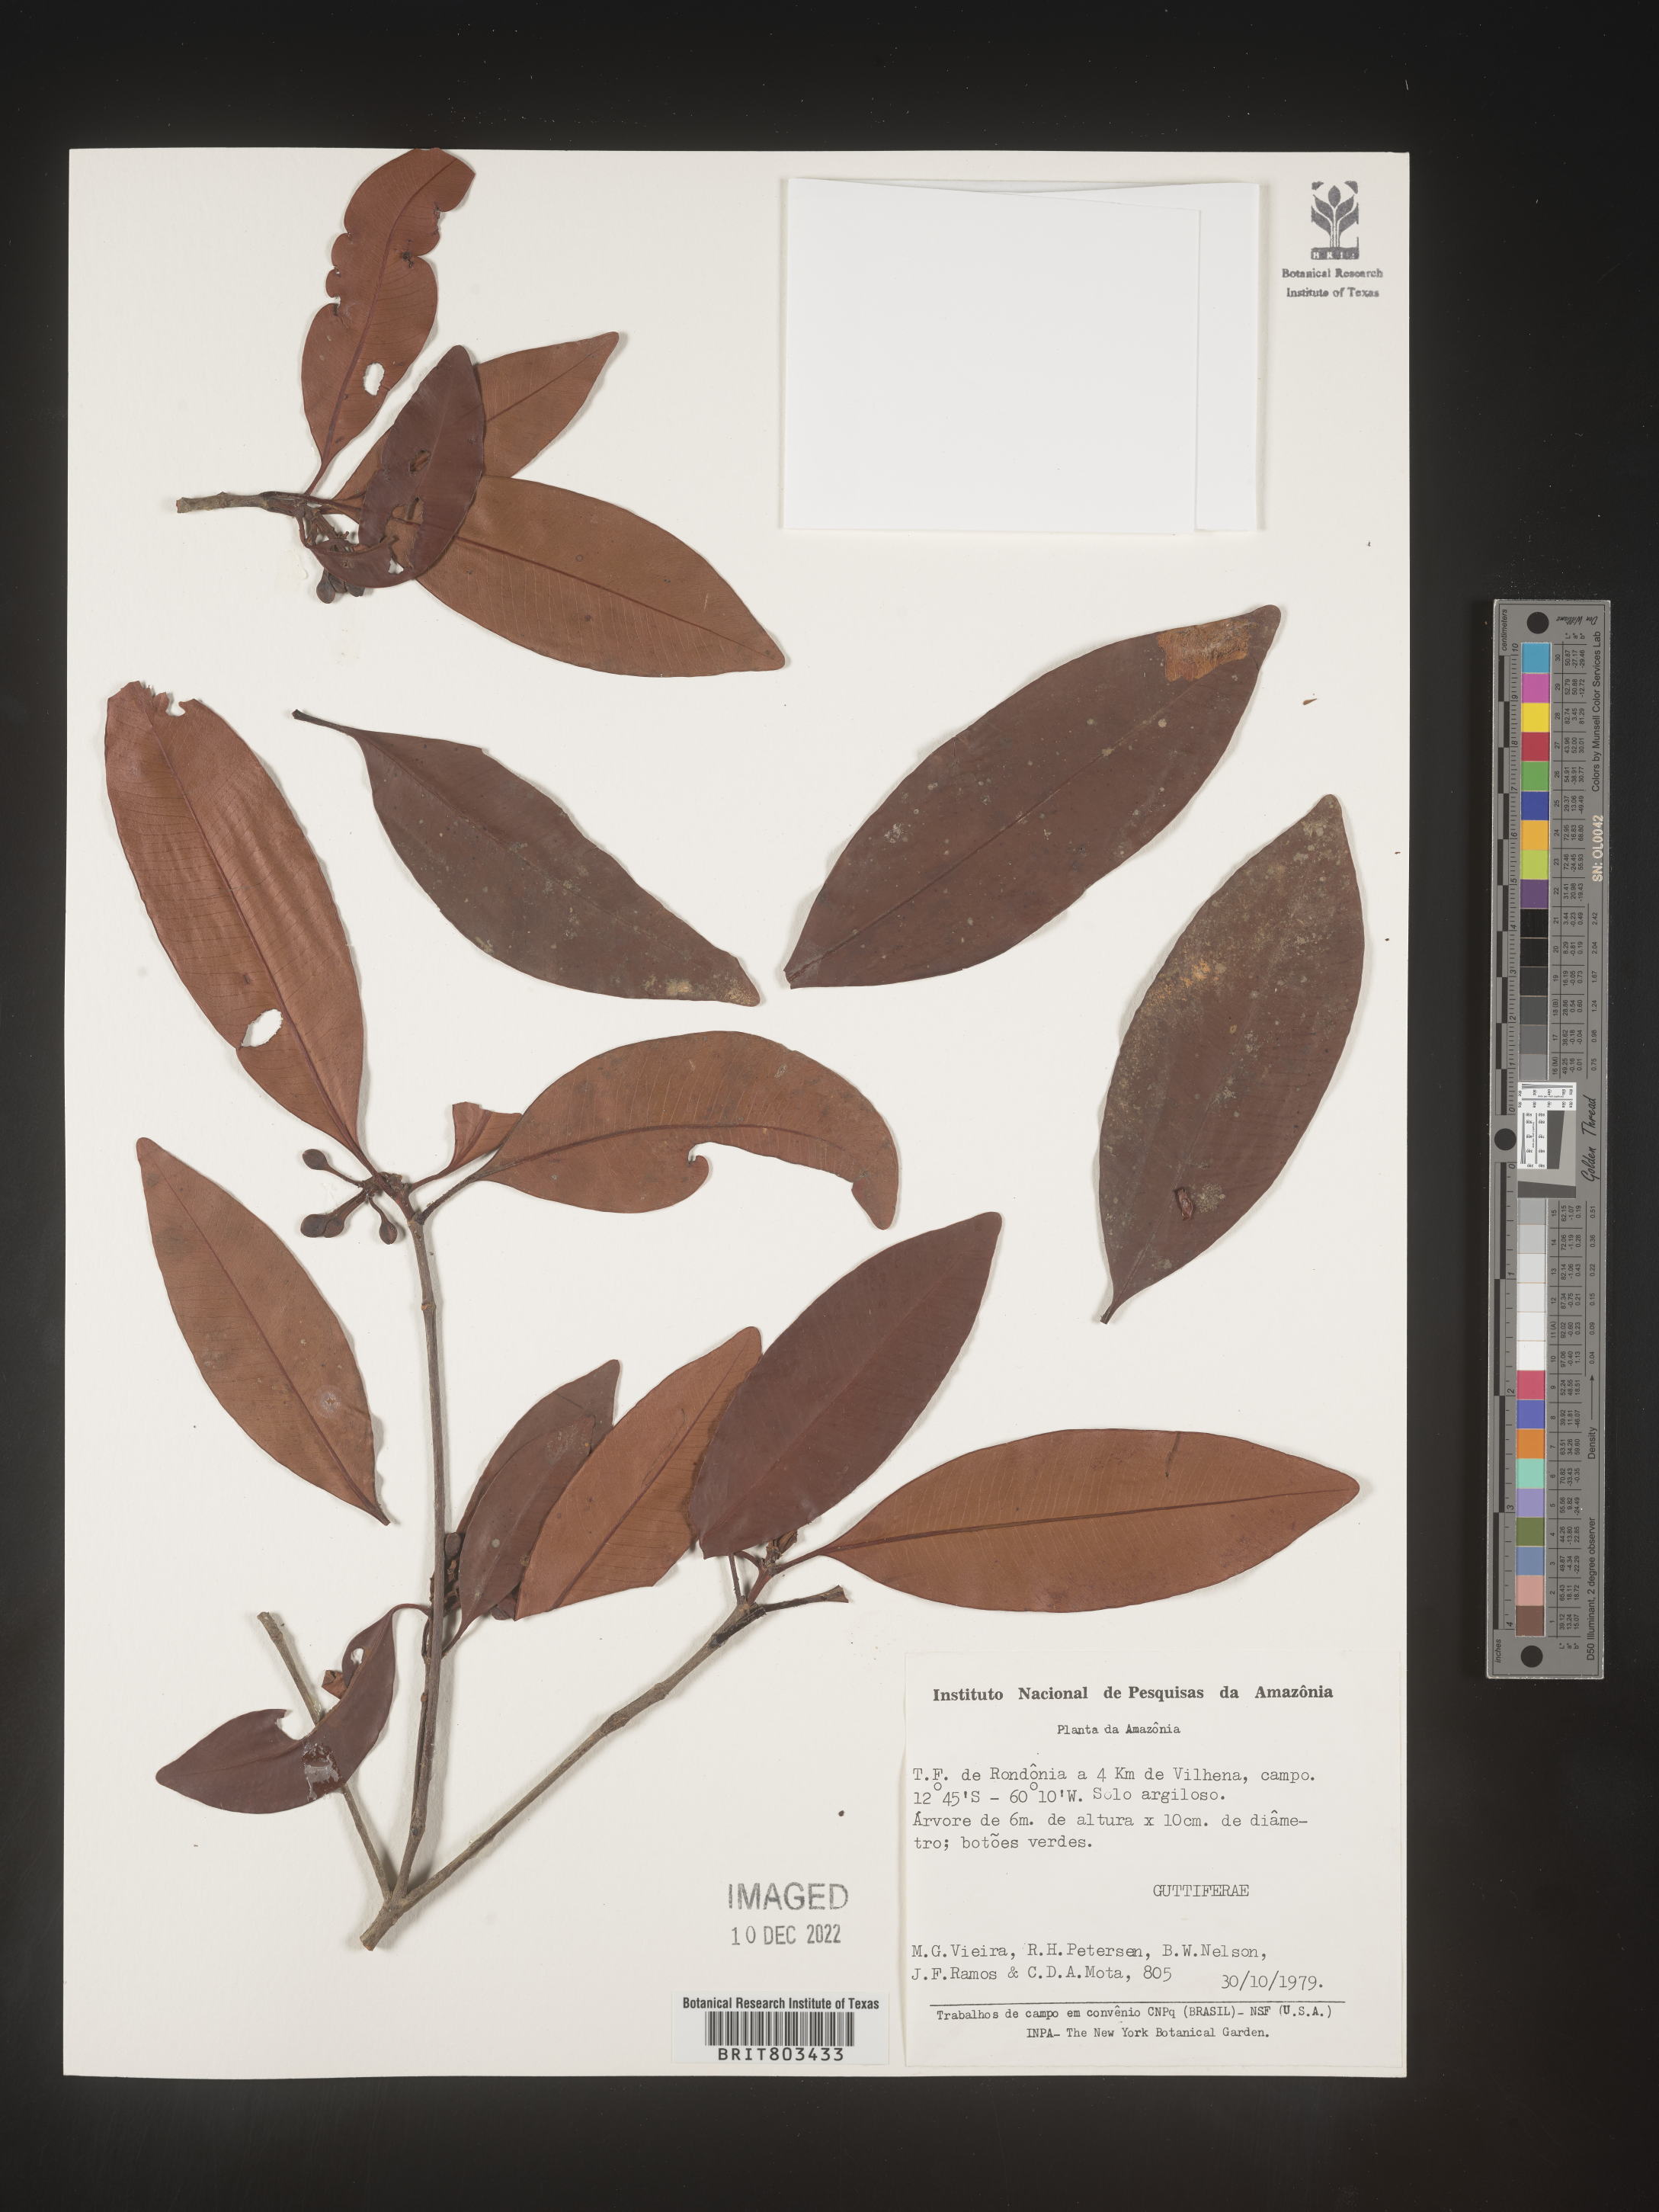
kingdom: Plantae
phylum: Tracheophyta
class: Magnoliopsida
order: Malpighiales
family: Clusiaceae
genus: Tovomita
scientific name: Tovomita
